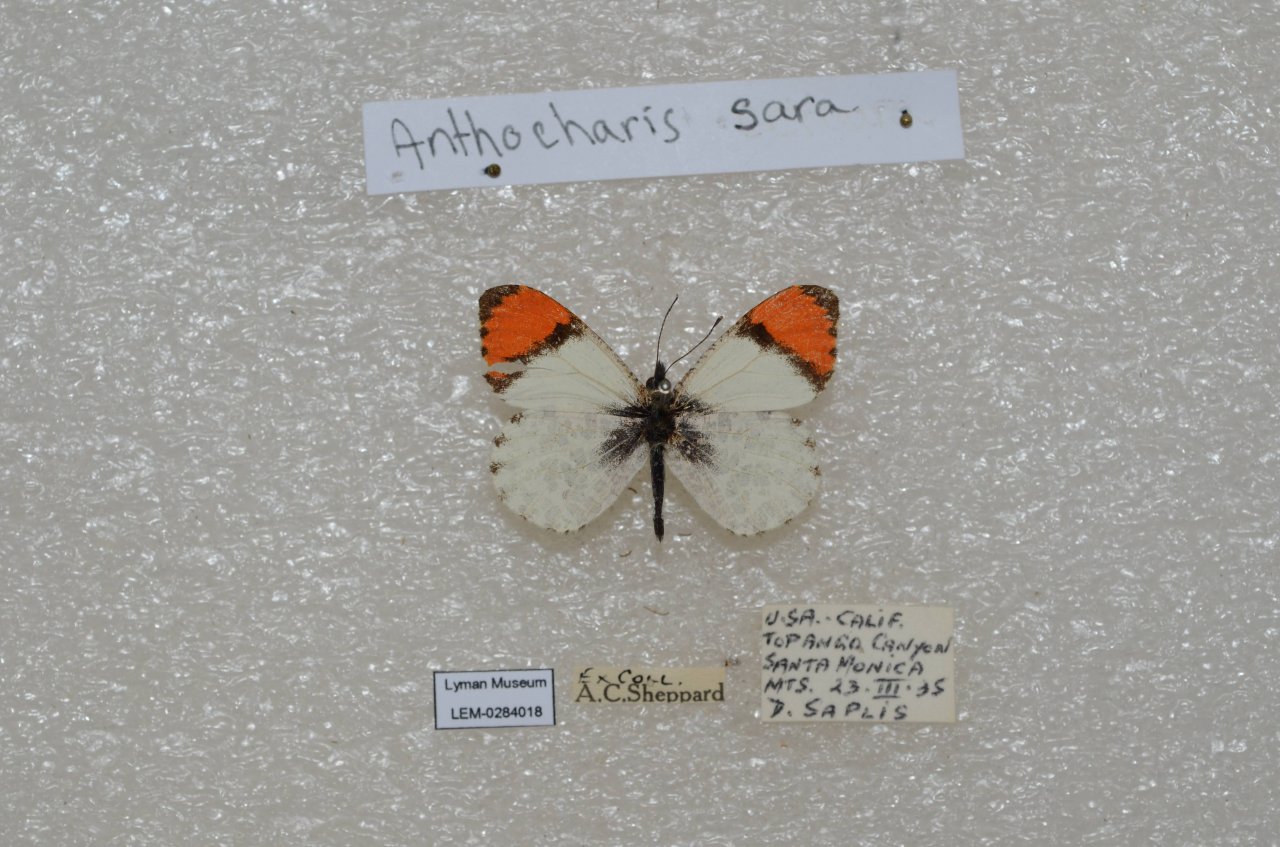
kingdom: Animalia
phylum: Arthropoda
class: Insecta
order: Lepidoptera
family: Pieridae
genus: Anthocharis
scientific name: Anthocharis sara
